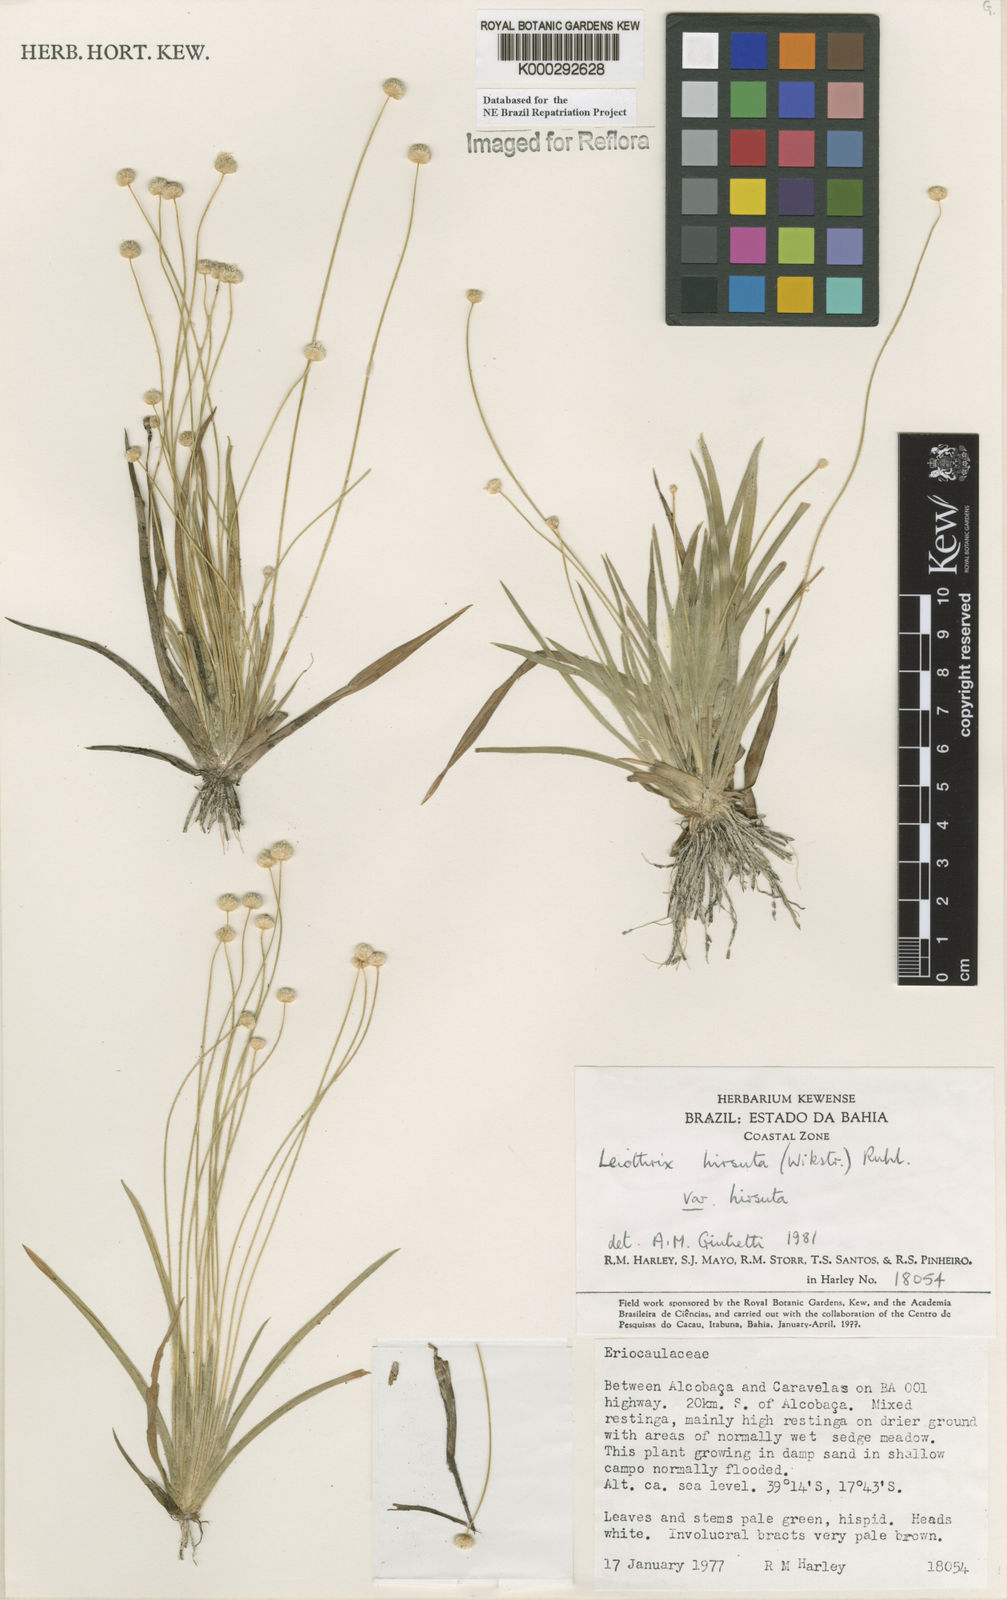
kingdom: Plantae
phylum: Tracheophyta
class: Liliopsida
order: Poales
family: Eriocaulaceae
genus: Leiothrix
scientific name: Leiothrix hirsuta
